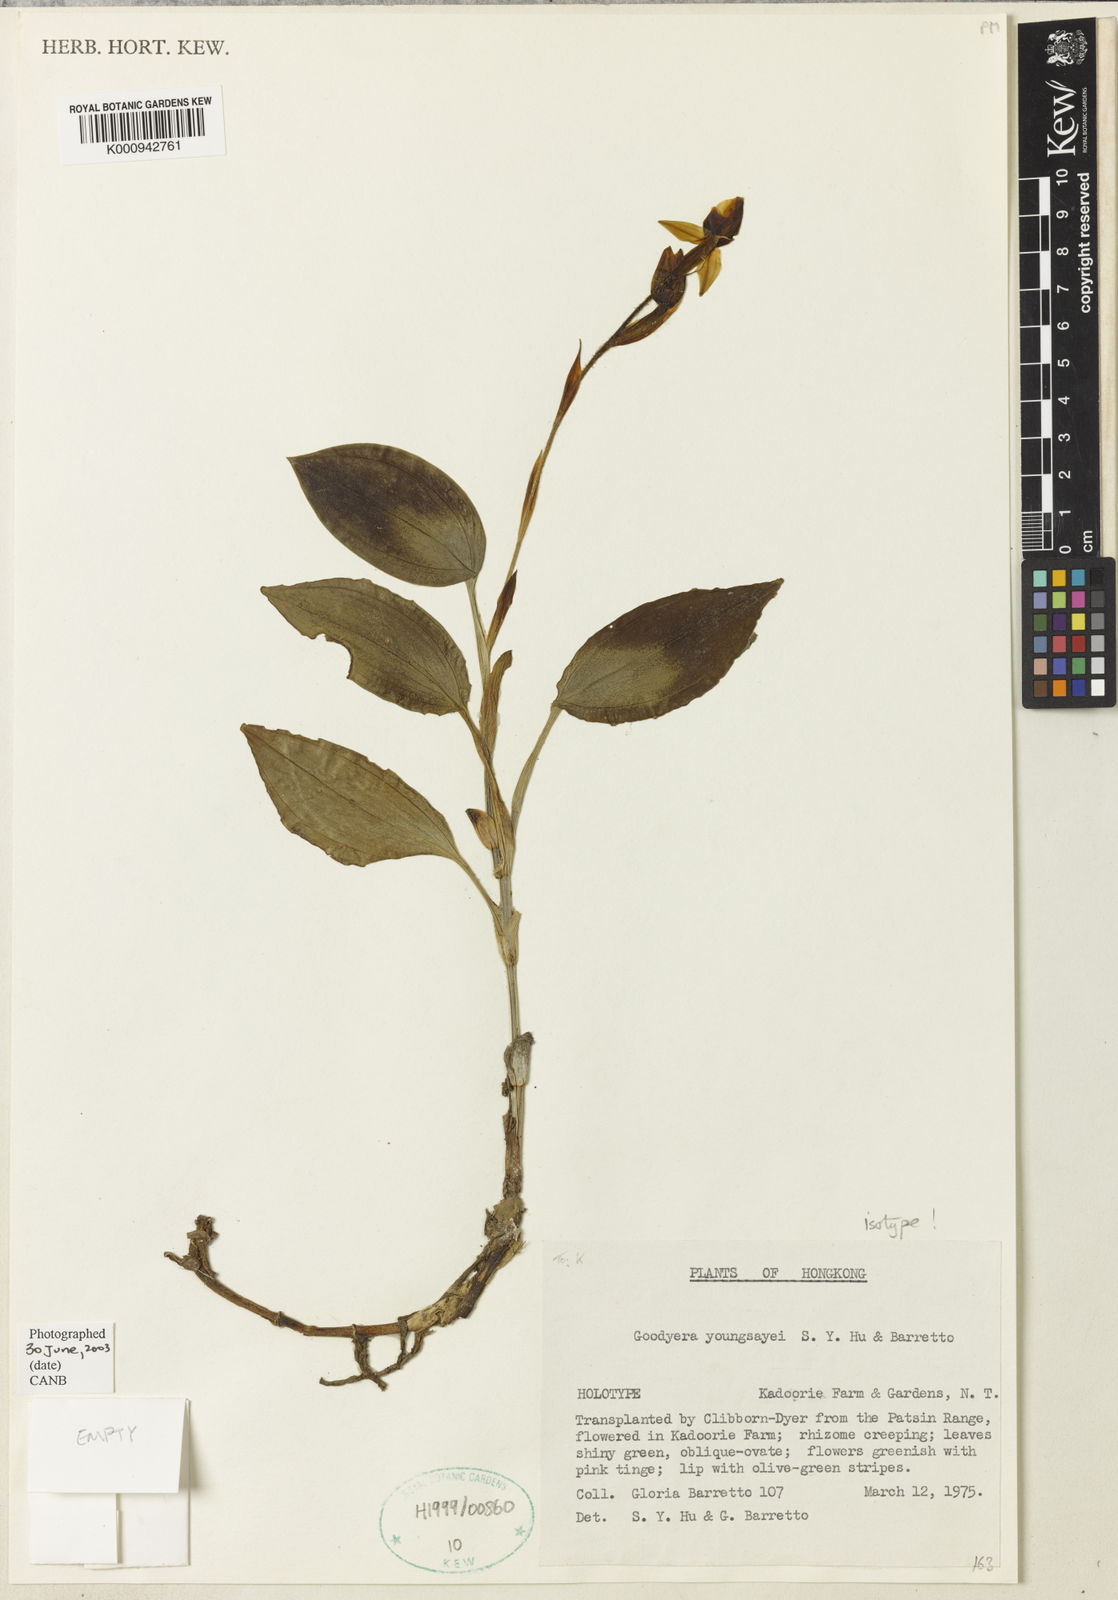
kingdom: Plantae
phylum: Tracheophyta
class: Liliopsida
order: Asparagales
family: Orchidaceae
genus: Goodyera
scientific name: Goodyera longirostrata
